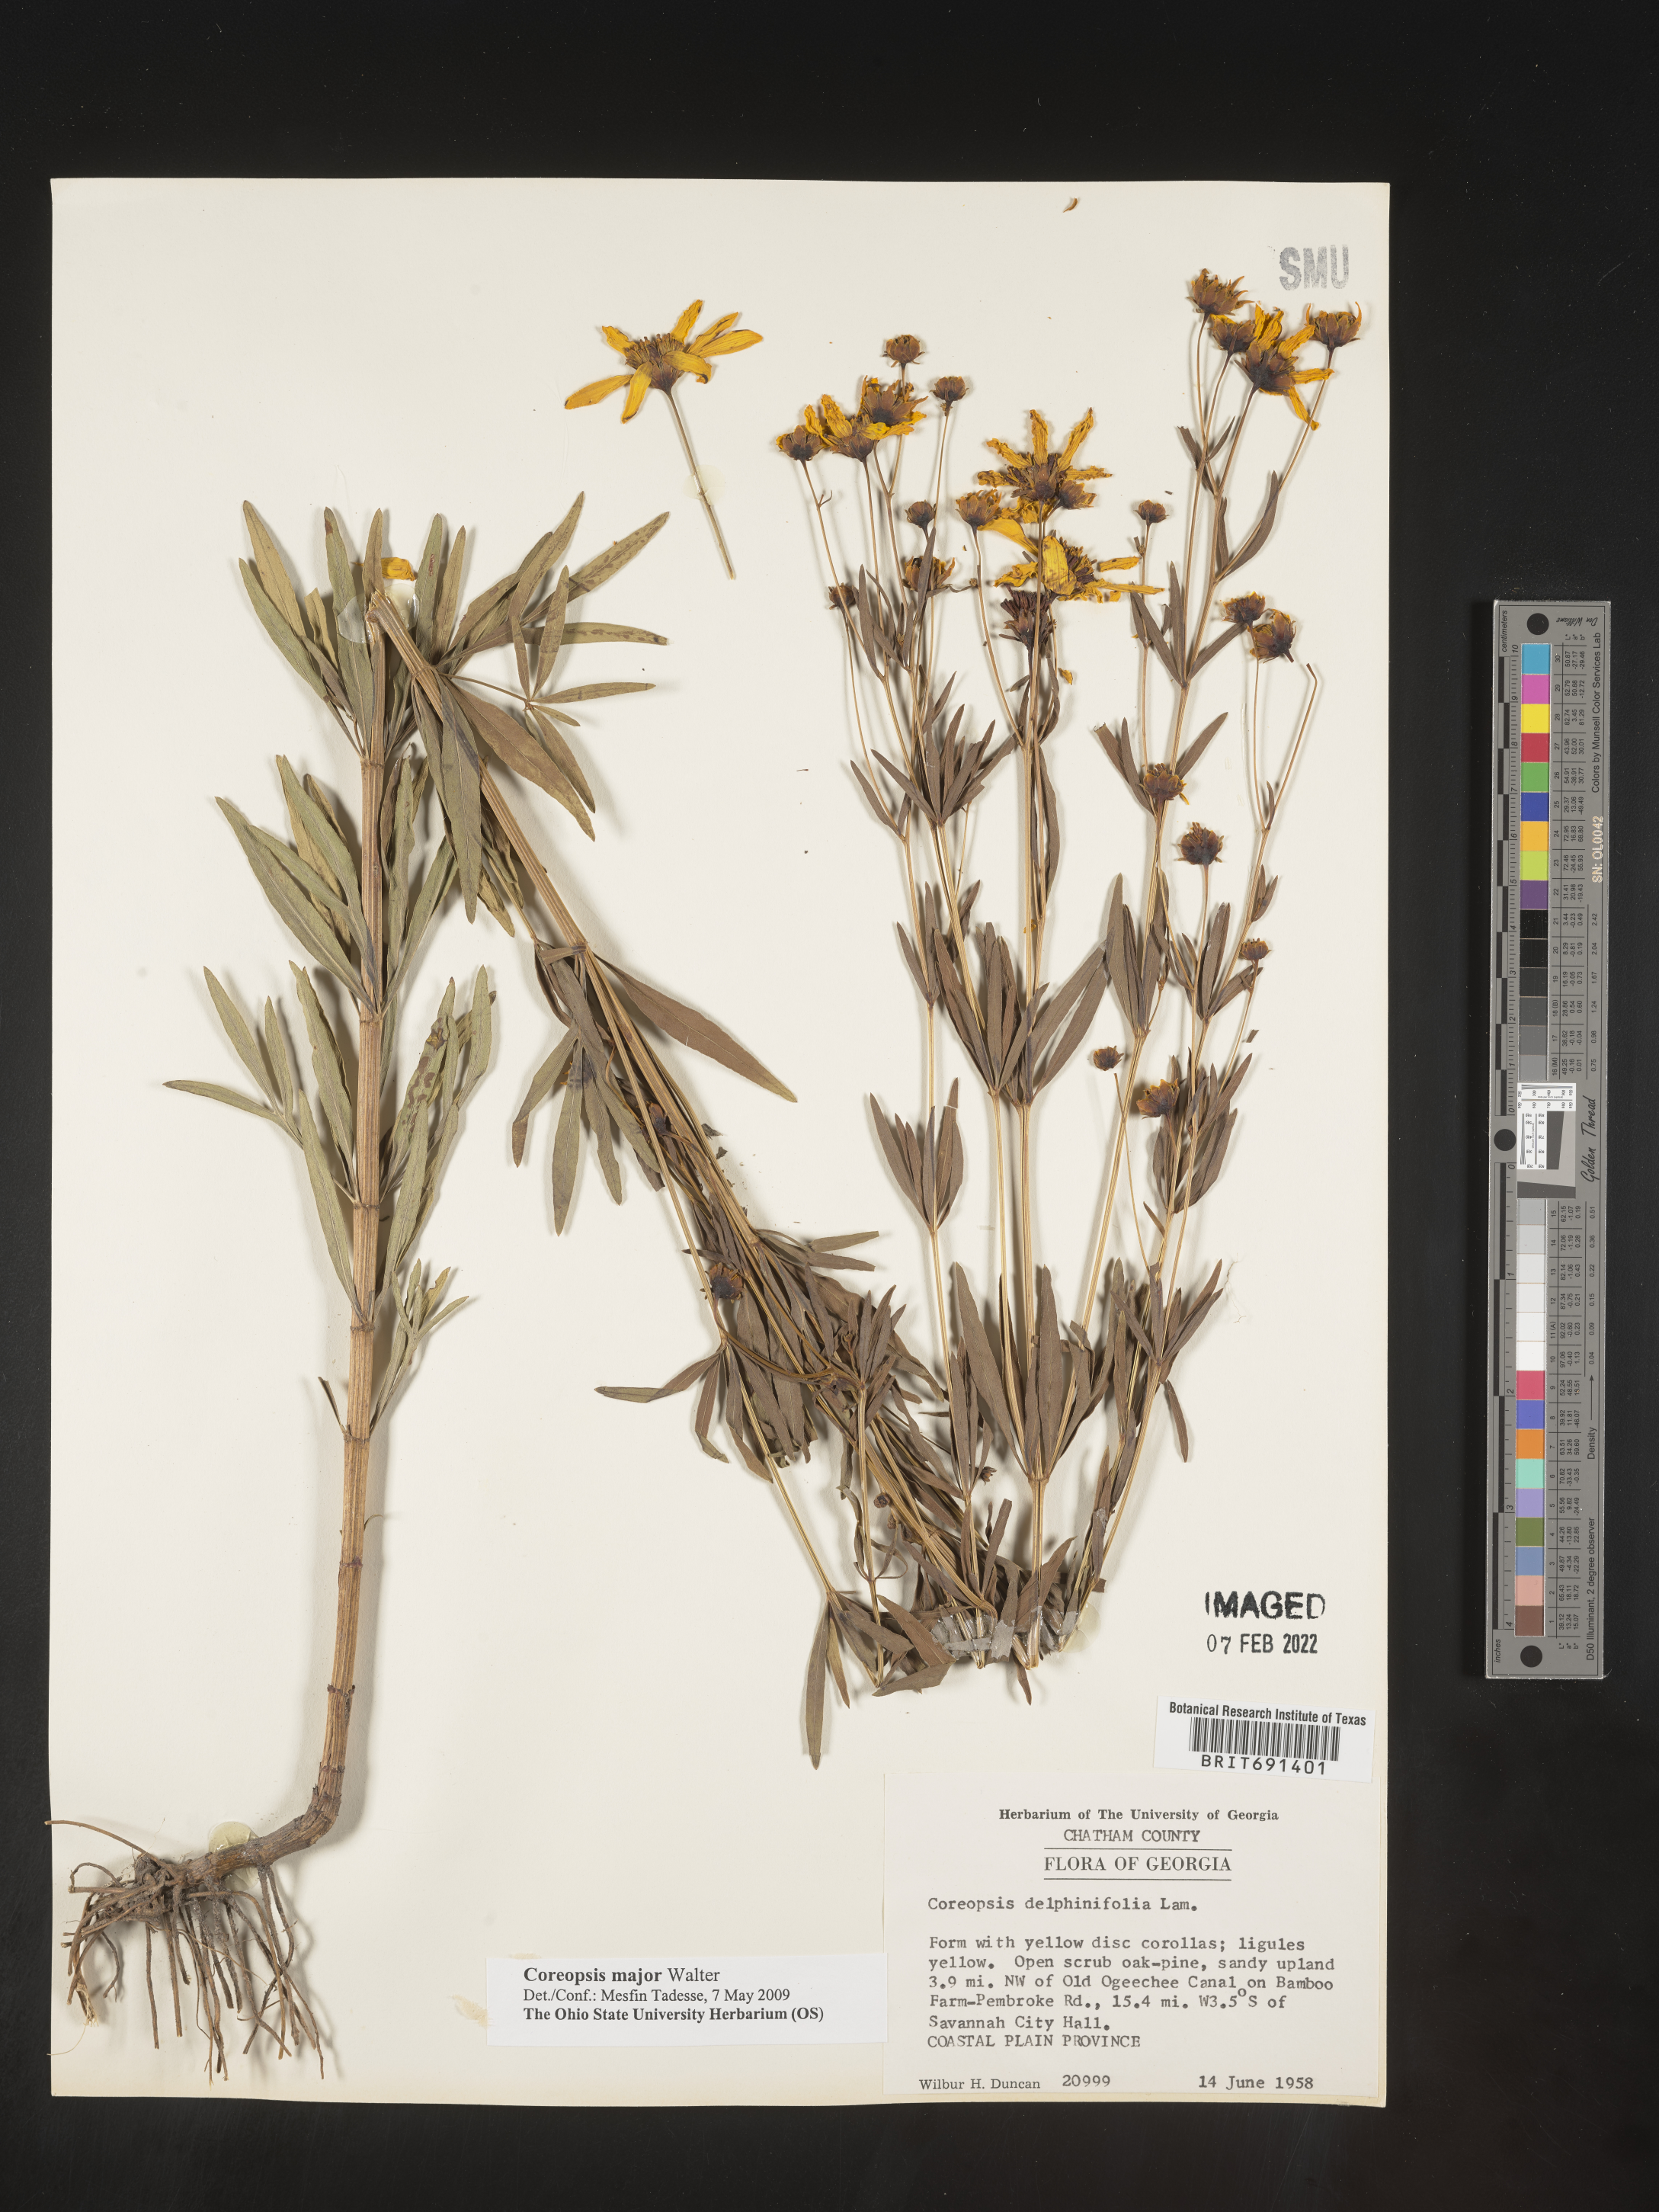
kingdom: Plantae
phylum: Tracheophyta
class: Magnoliopsida
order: Asterales
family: Asteraceae
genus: Coreopsis
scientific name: Coreopsis major
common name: Forest tickseed
